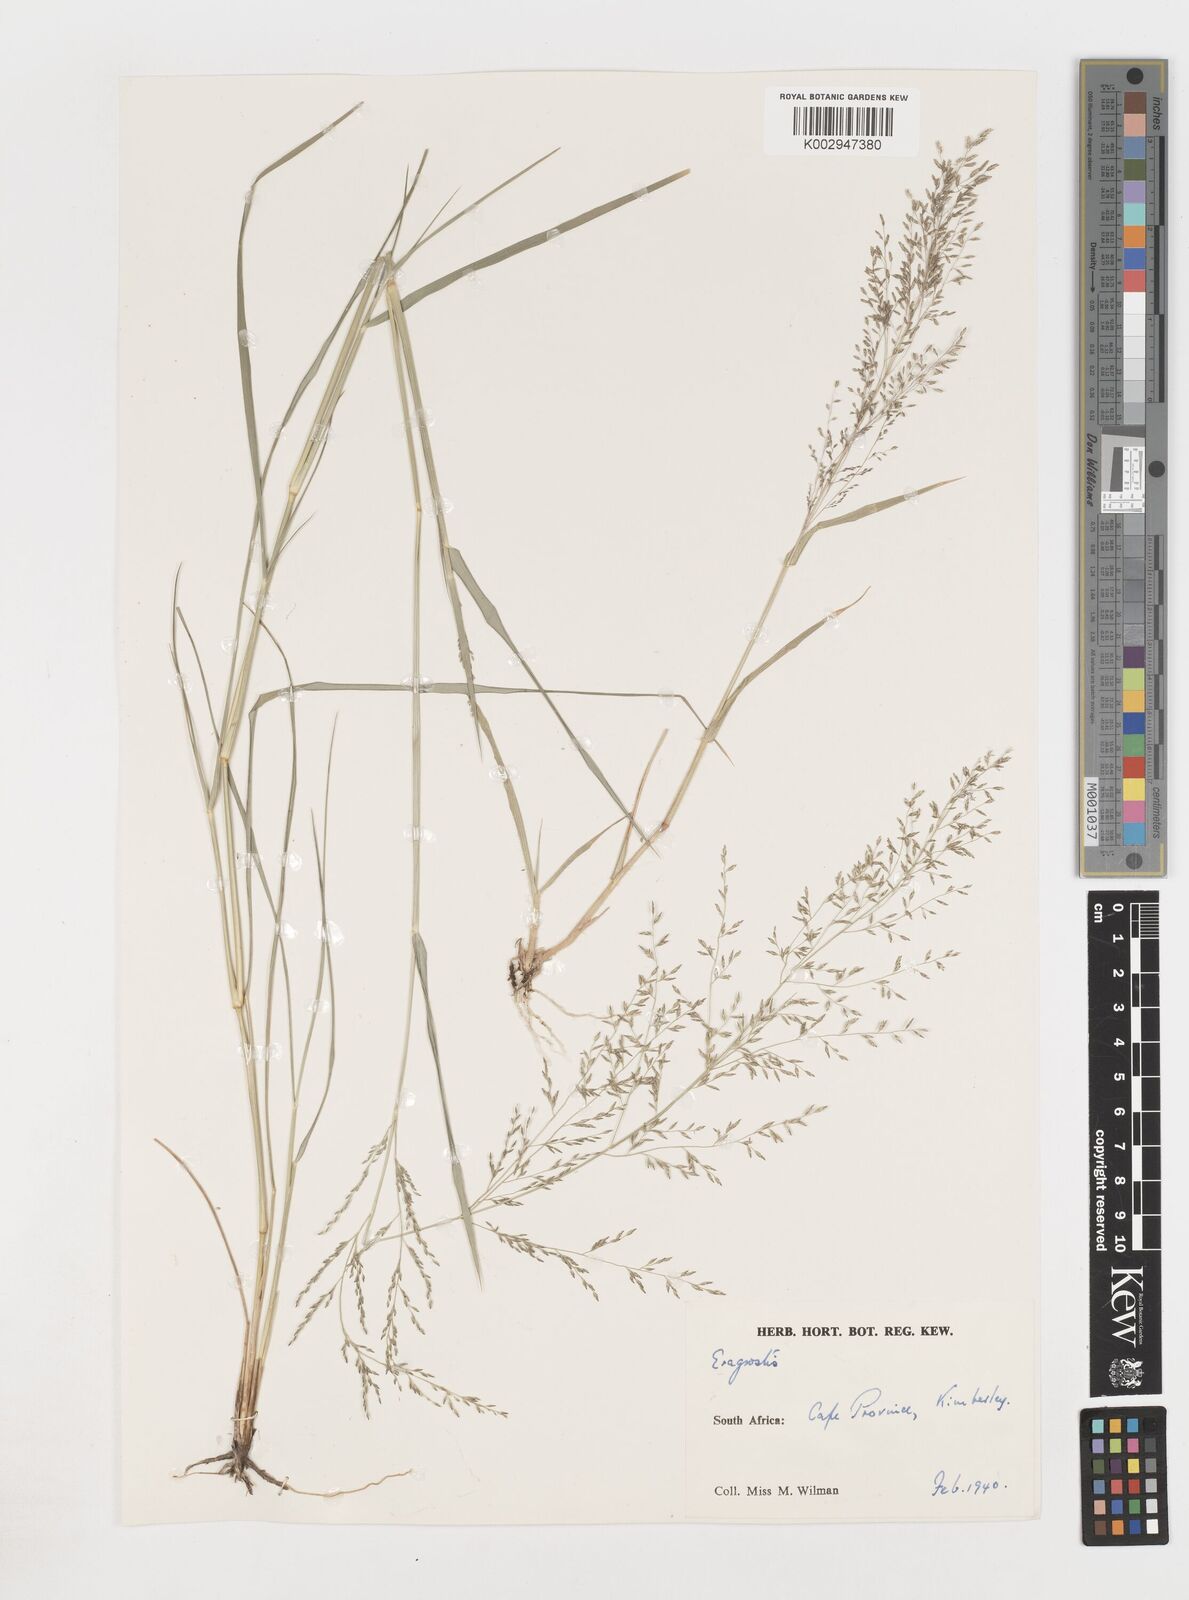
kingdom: Plantae
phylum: Tracheophyta
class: Liliopsida
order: Poales
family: Poaceae
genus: Eragrostis
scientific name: Eragrostis
